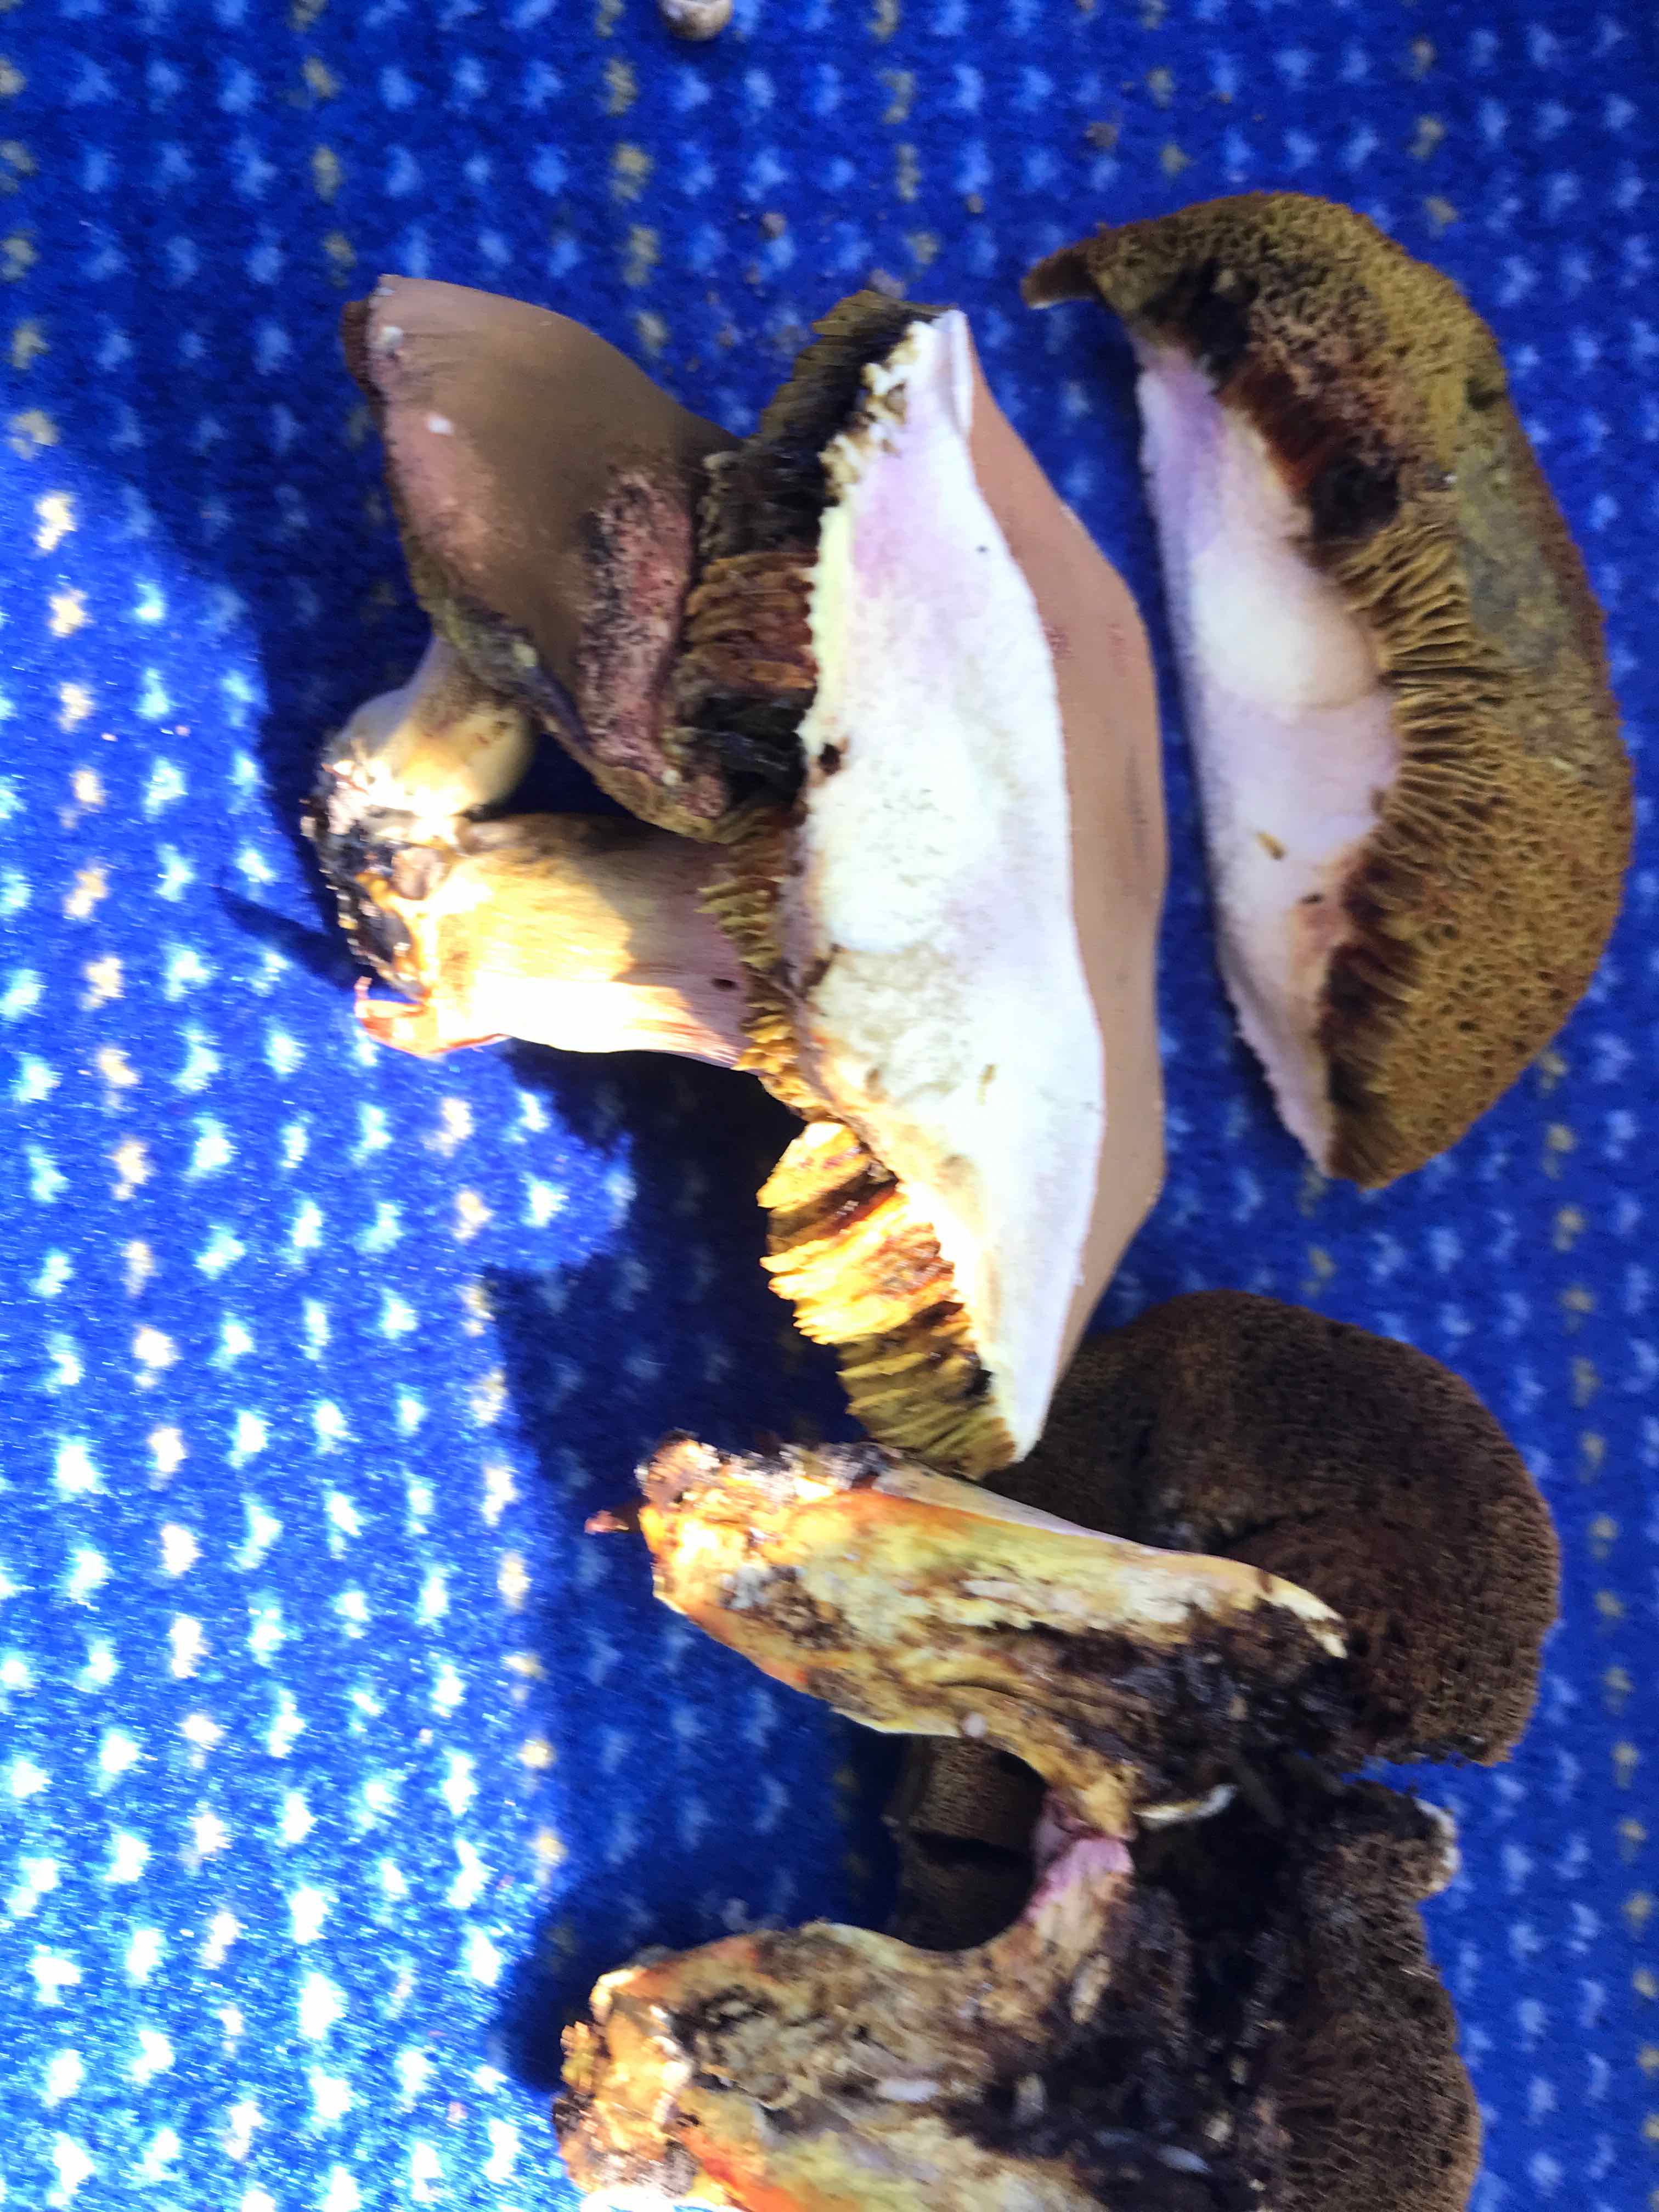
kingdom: Fungi
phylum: Basidiomycota
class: Agaricomycetes
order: Boletales
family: Boletaceae
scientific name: Boletaceae
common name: rørhatfamilien
